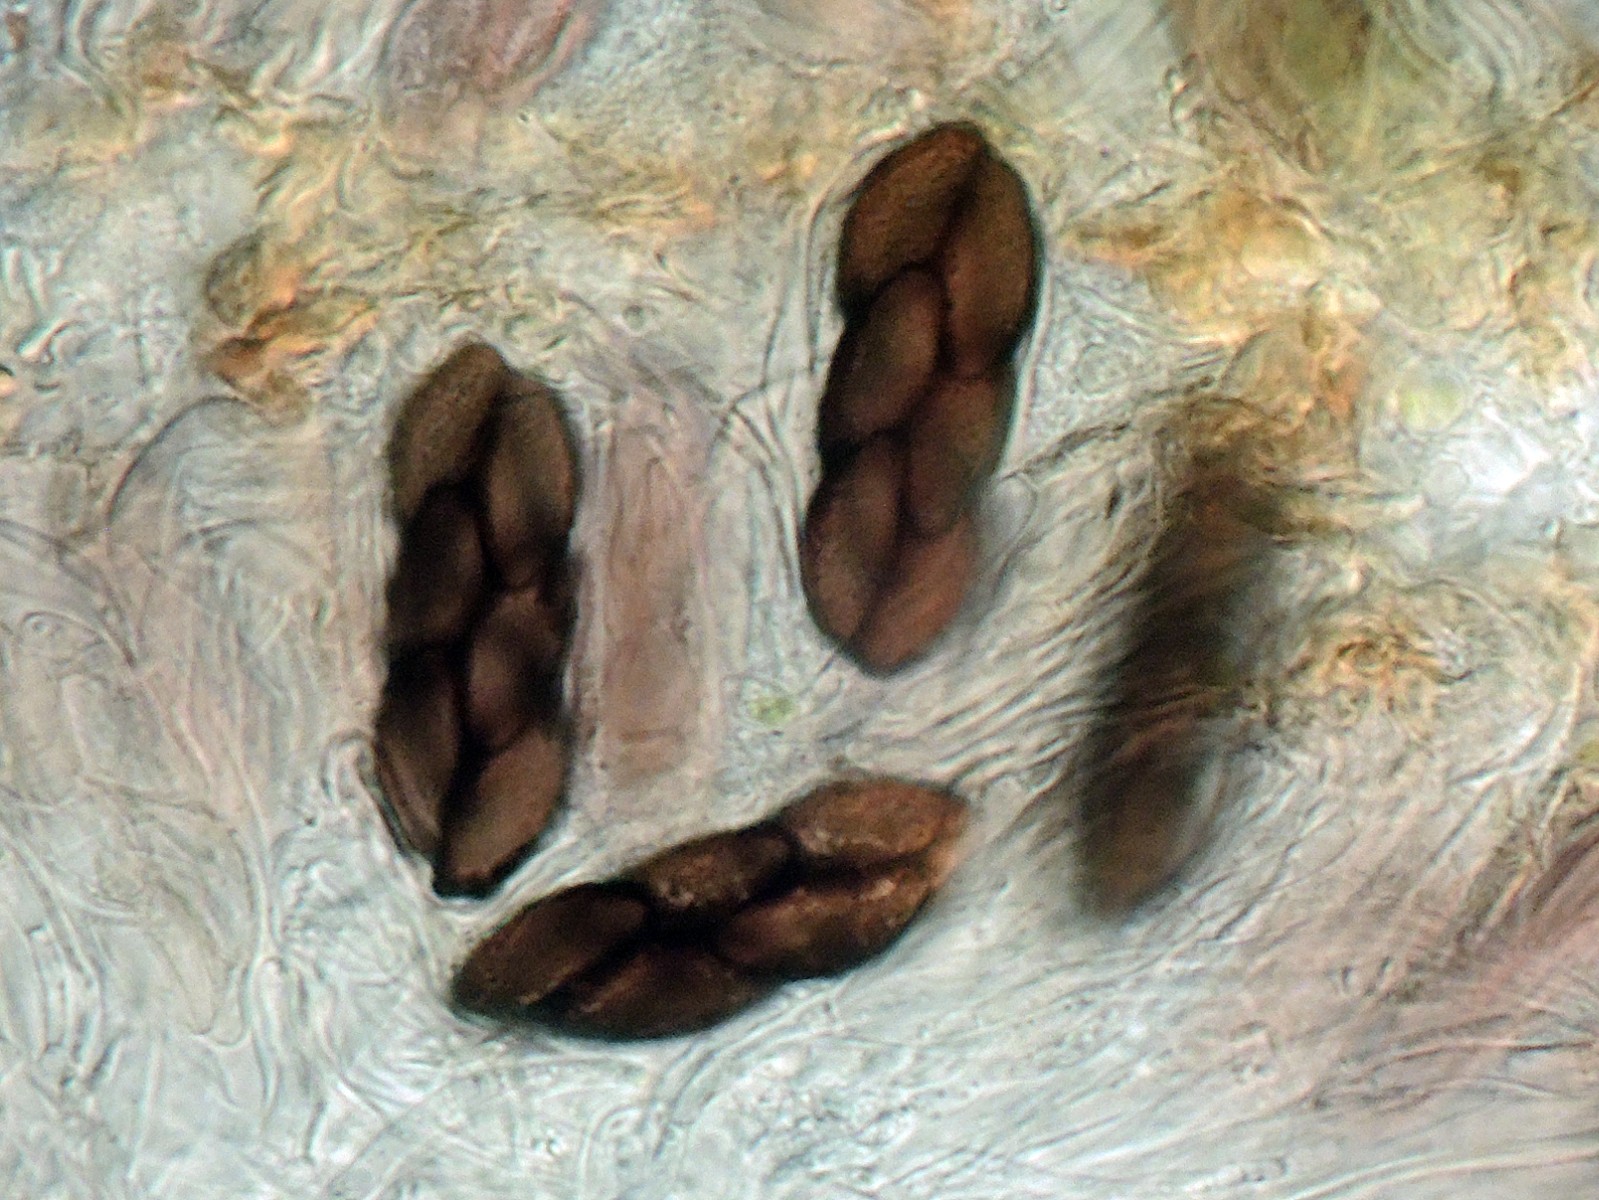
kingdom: Fungi
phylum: Ascomycota
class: Pezizomycetes
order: Pezizales
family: Ascobolaceae
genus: Saccobolus
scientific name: Saccobolus obscurus
